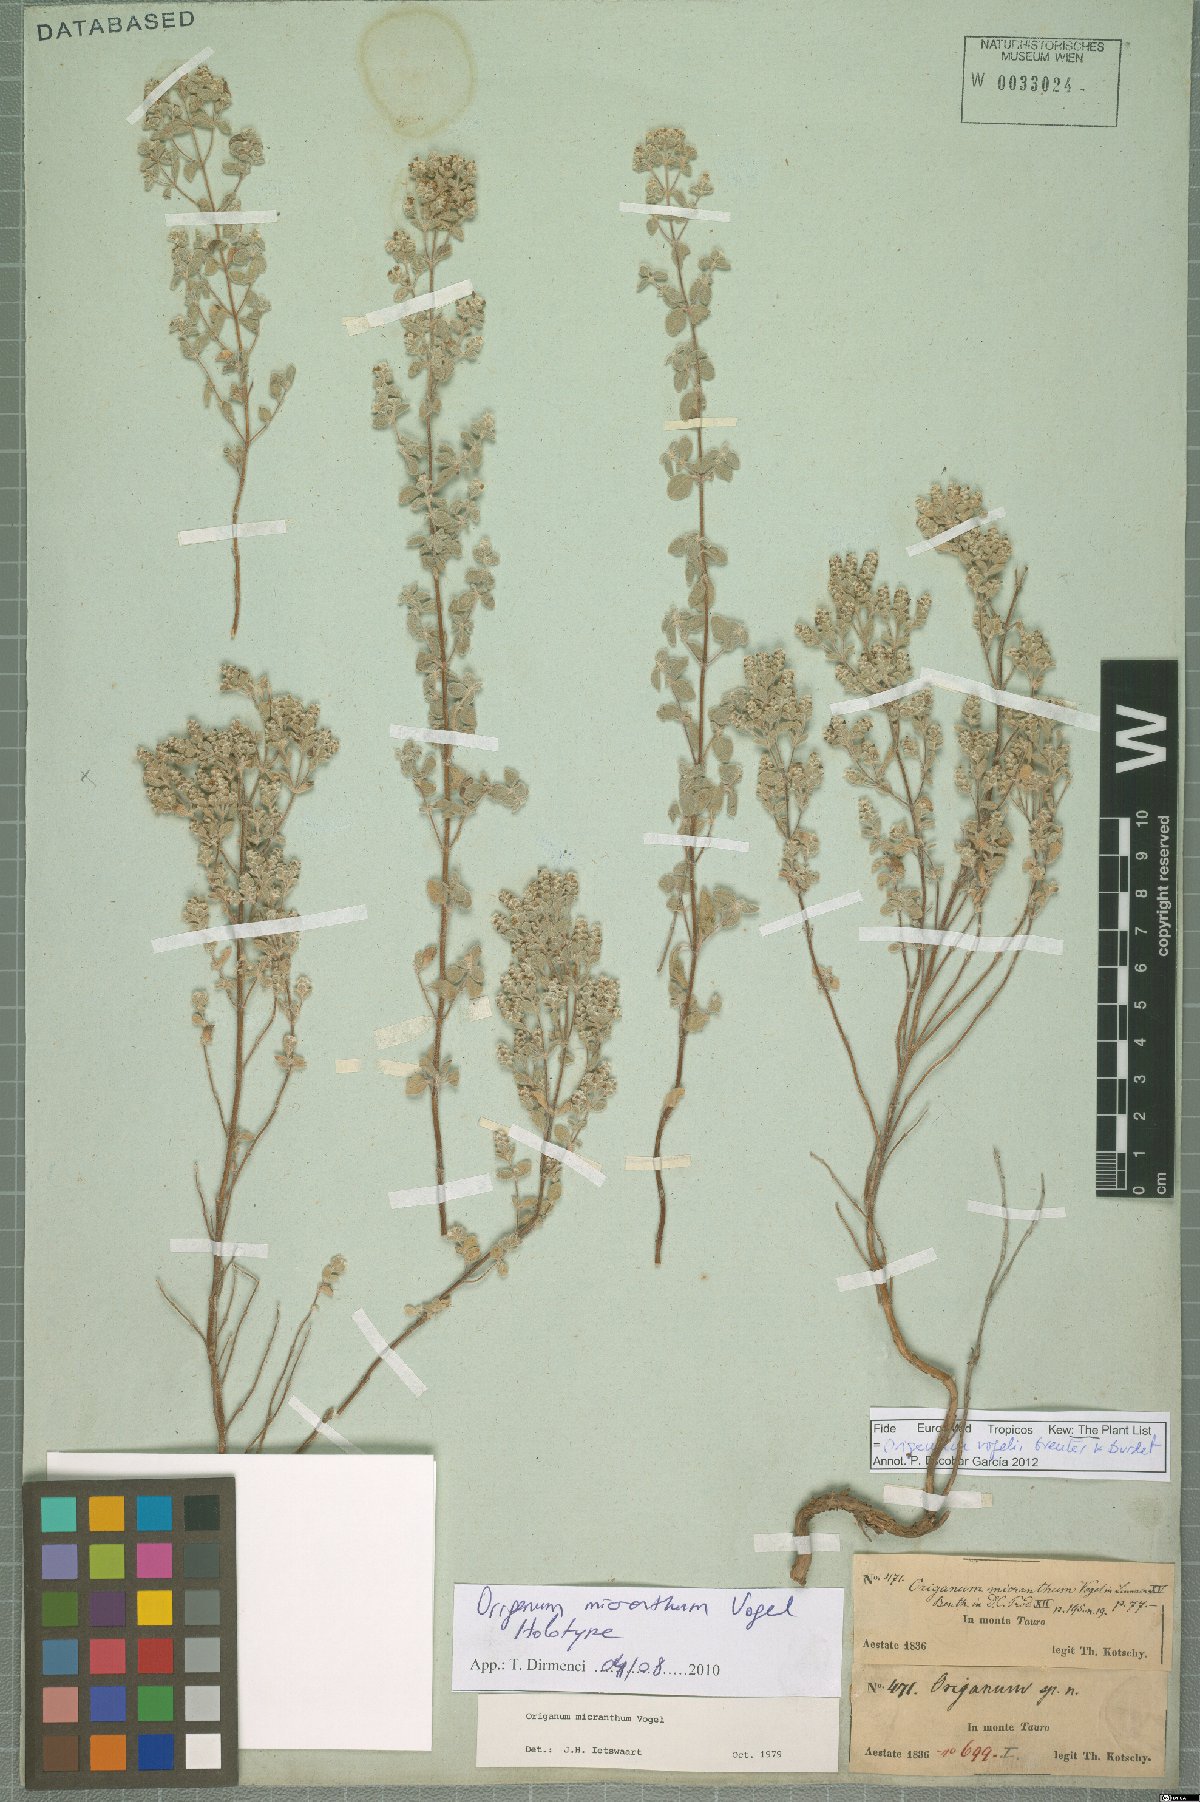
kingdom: Plantae
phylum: Tracheophyta
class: Magnoliopsida
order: Lamiales
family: Lamiaceae
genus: Origanum
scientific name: Origanum vogelii
